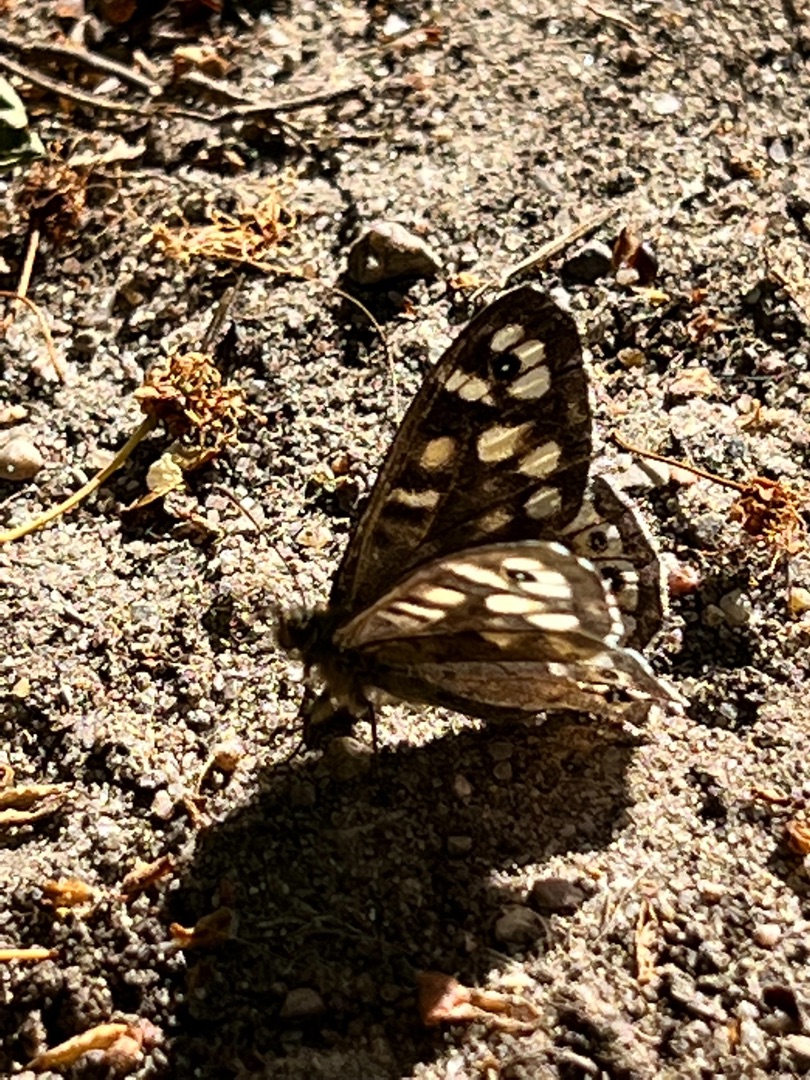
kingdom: Animalia
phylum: Arthropoda
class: Insecta
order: Lepidoptera
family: Nymphalidae
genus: Pararge
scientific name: Pararge aegeria
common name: Skovrandøje
